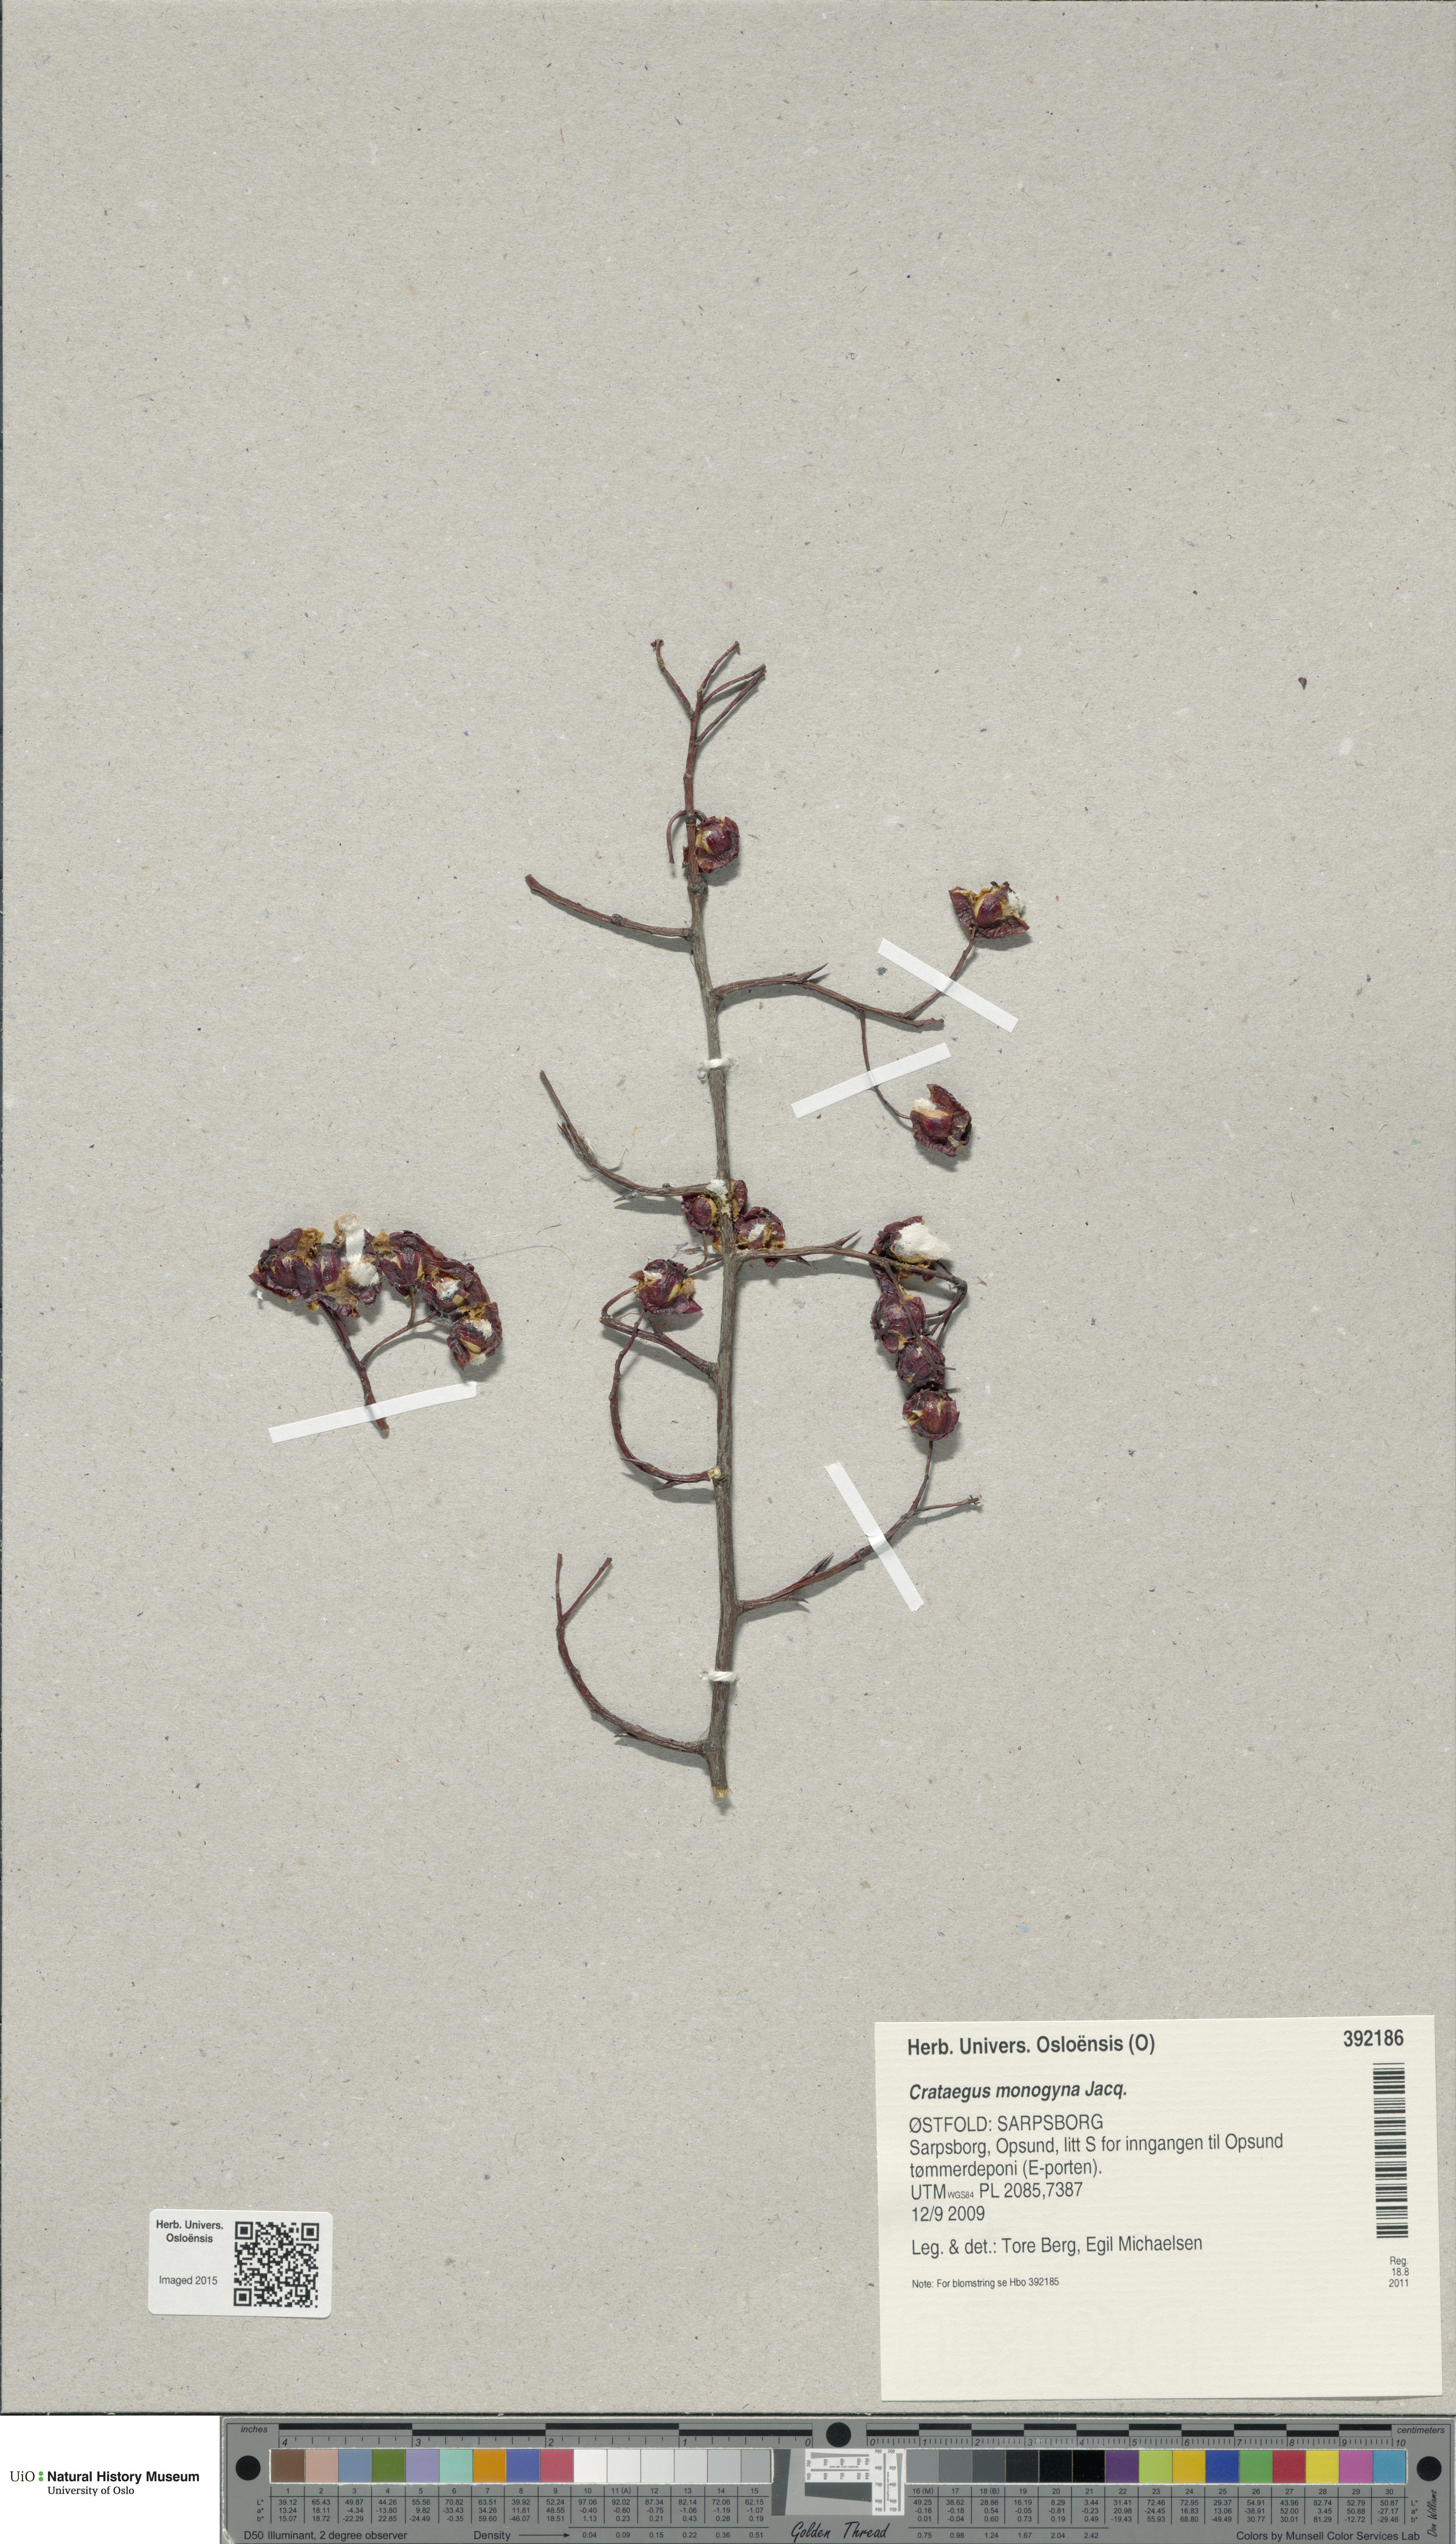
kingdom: Plantae
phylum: Tracheophyta
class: Magnoliopsida
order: Rosales
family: Rosaceae
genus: Crataegus
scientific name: Crataegus monogyna
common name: Hawthorn
